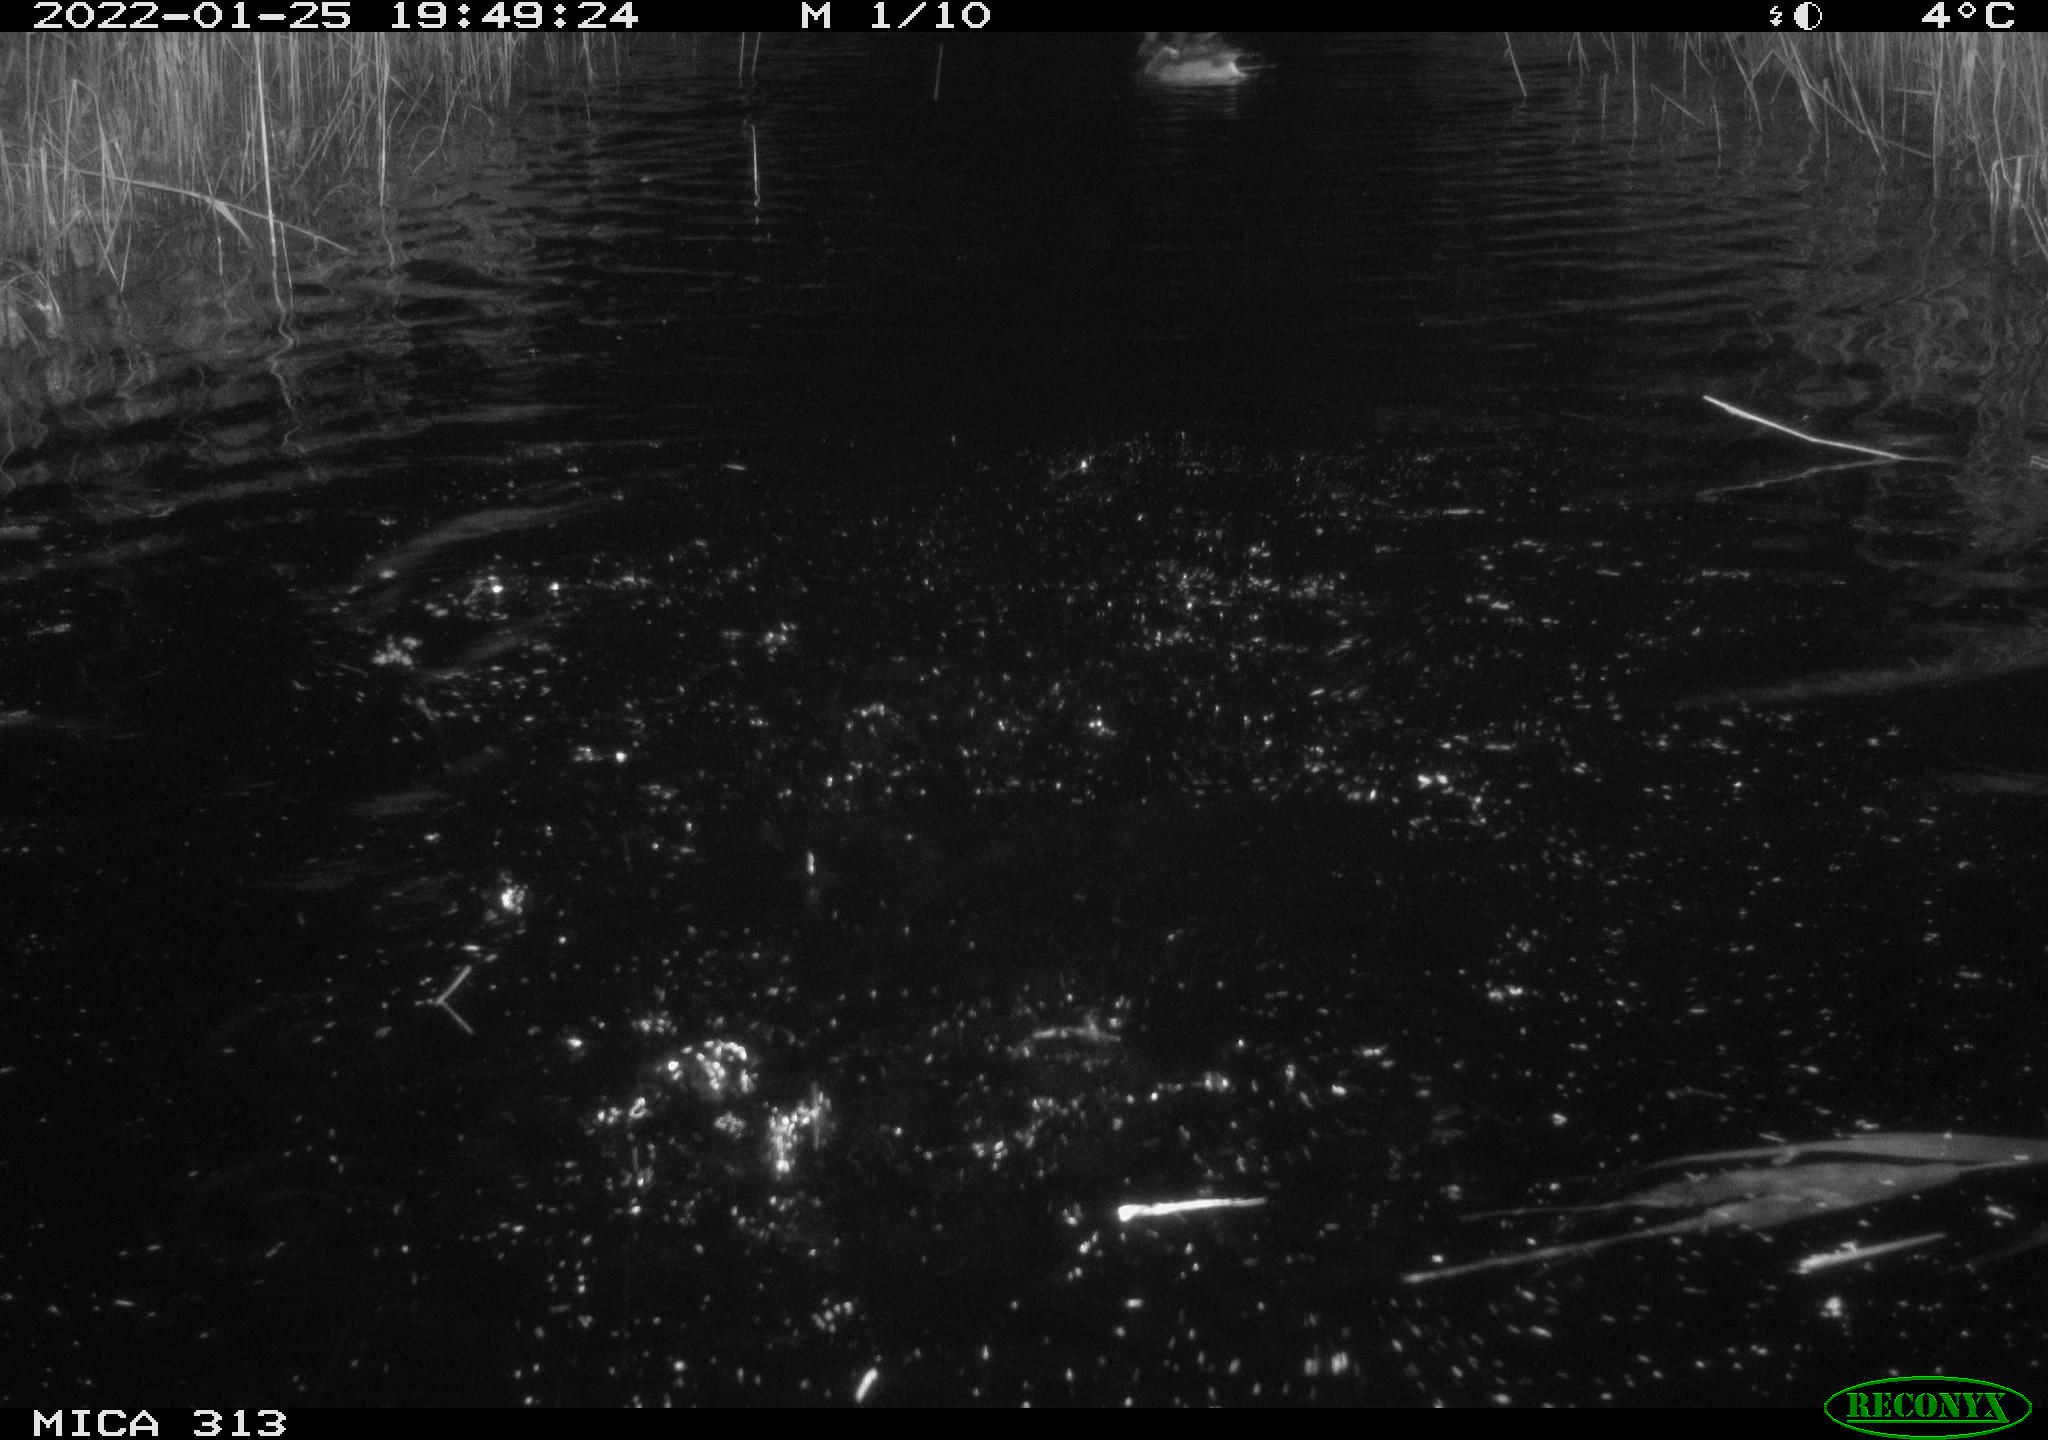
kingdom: Animalia
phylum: Chordata
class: Aves
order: Anseriformes
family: Anatidae
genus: Anas
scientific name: Anas
